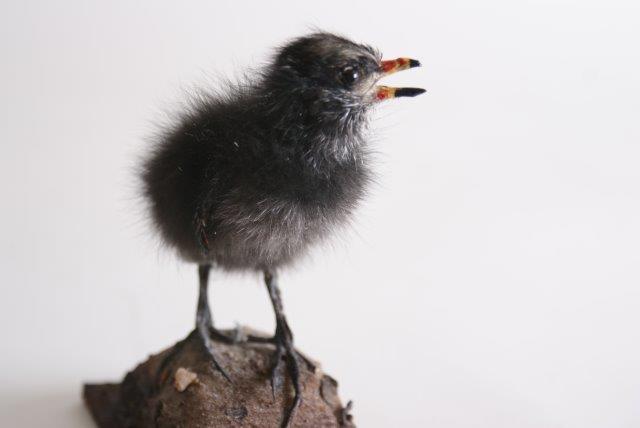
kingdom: Animalia
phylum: Chordata
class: Aves
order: Gruiformes
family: Rallidae
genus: Gallinula
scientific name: Gallinula chloropus
